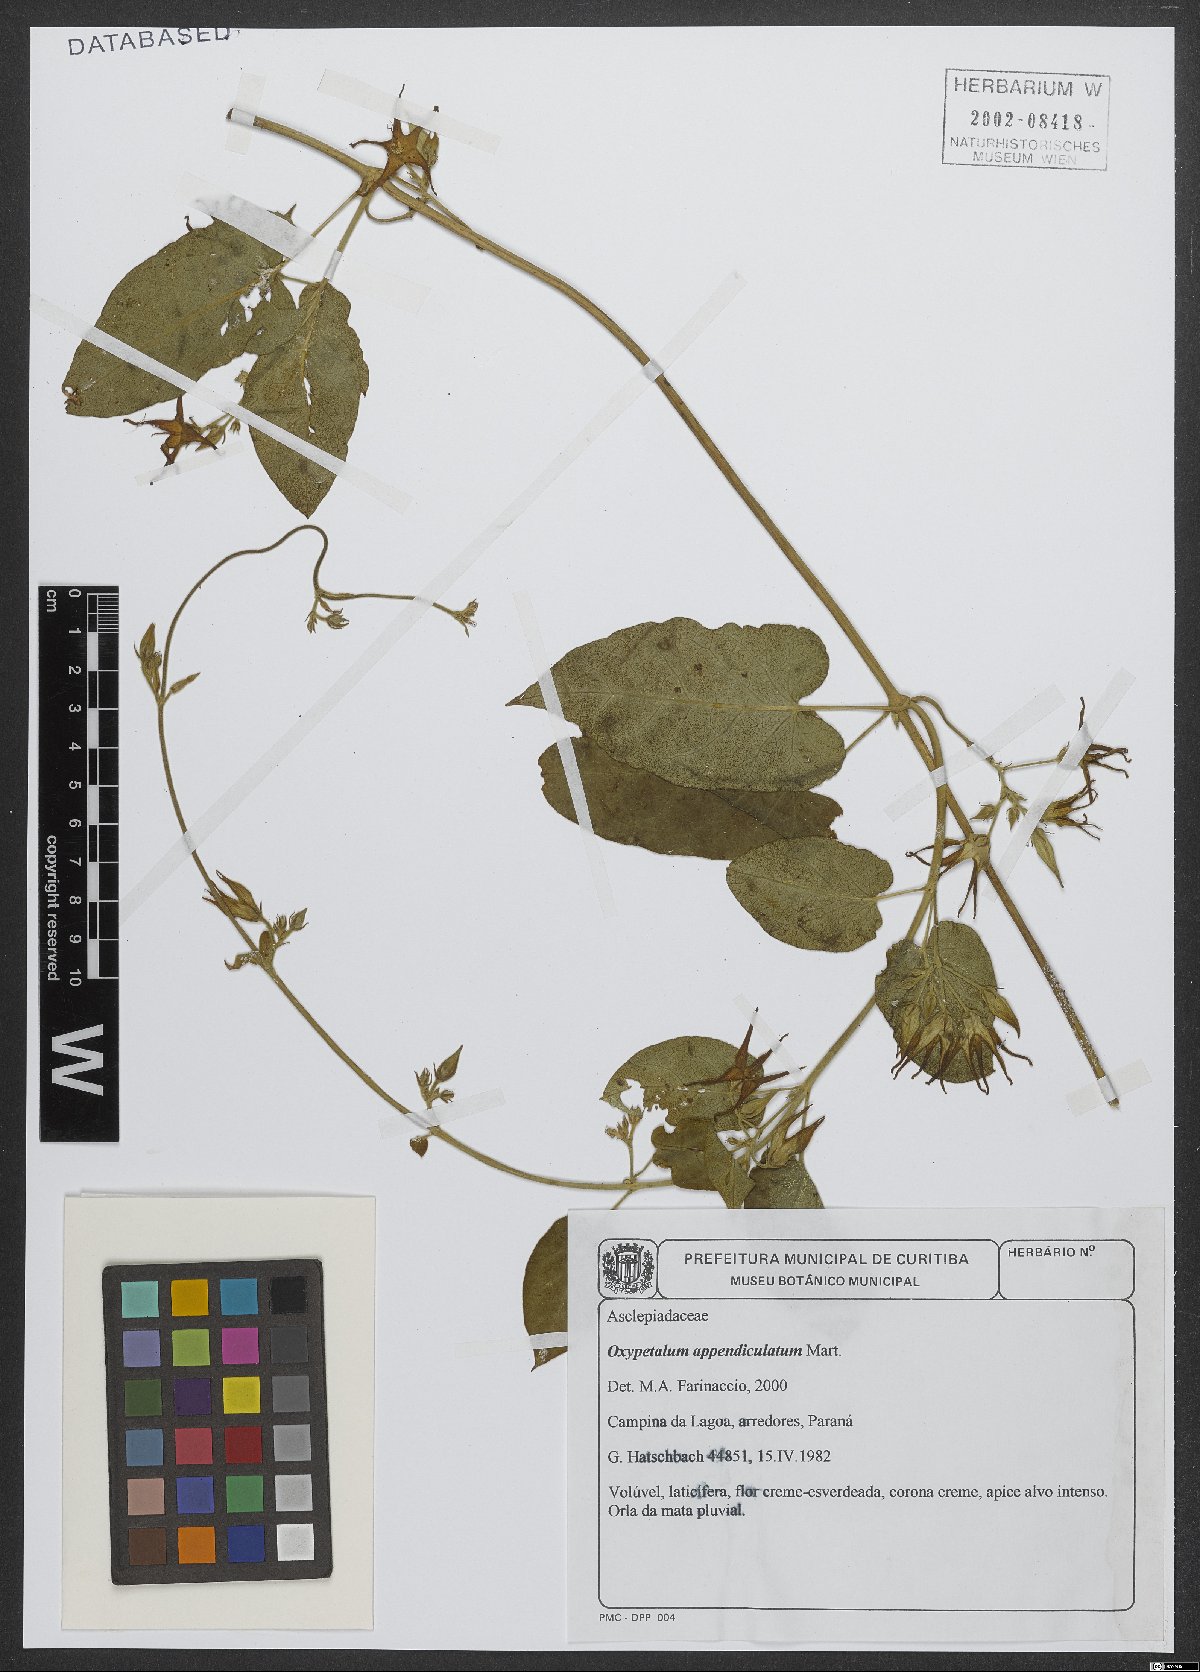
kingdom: Plantae
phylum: Tracheophyta
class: Magnoliopsida
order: Gentianales
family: Apocynaceae
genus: Oxypetalum
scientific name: Oxypetalum appendiculatum
